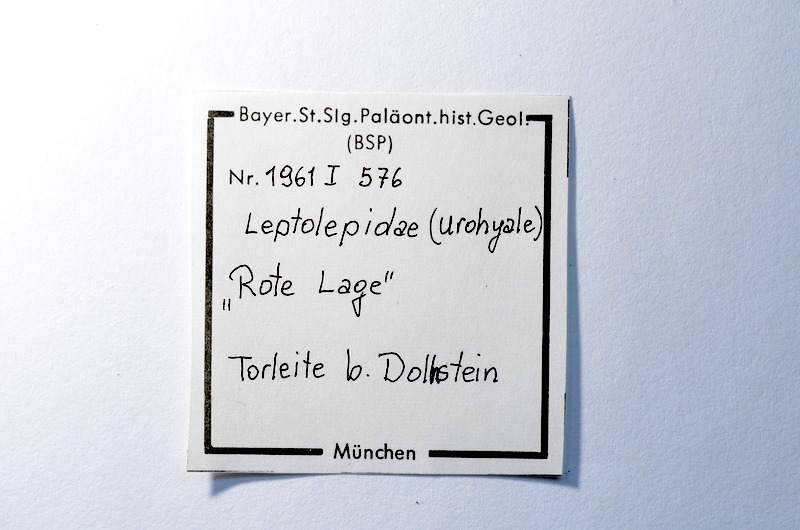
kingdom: Animalia
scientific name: Animalia
